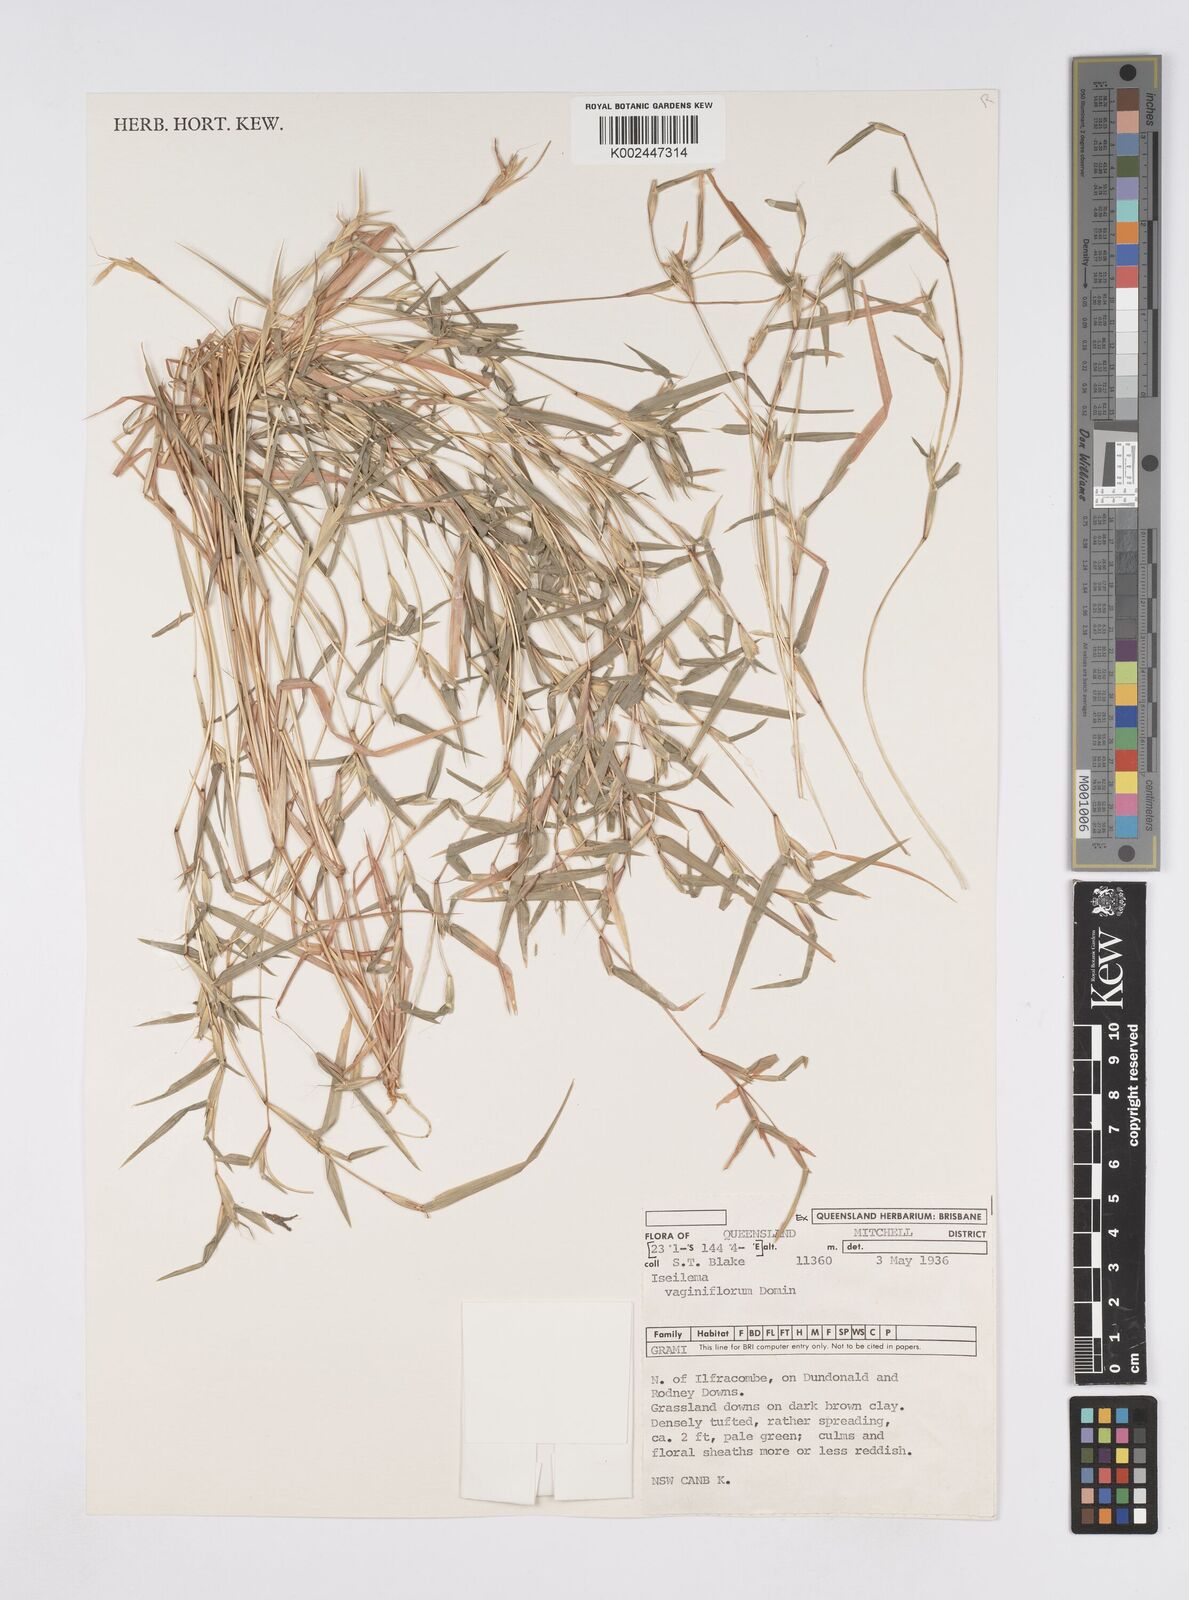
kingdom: Plantae
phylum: Tracheophyta
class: Liliopsida
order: Poales
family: Poaceae
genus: Iseilema
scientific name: Iseilema vaginiflorum
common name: Red flinders grass
